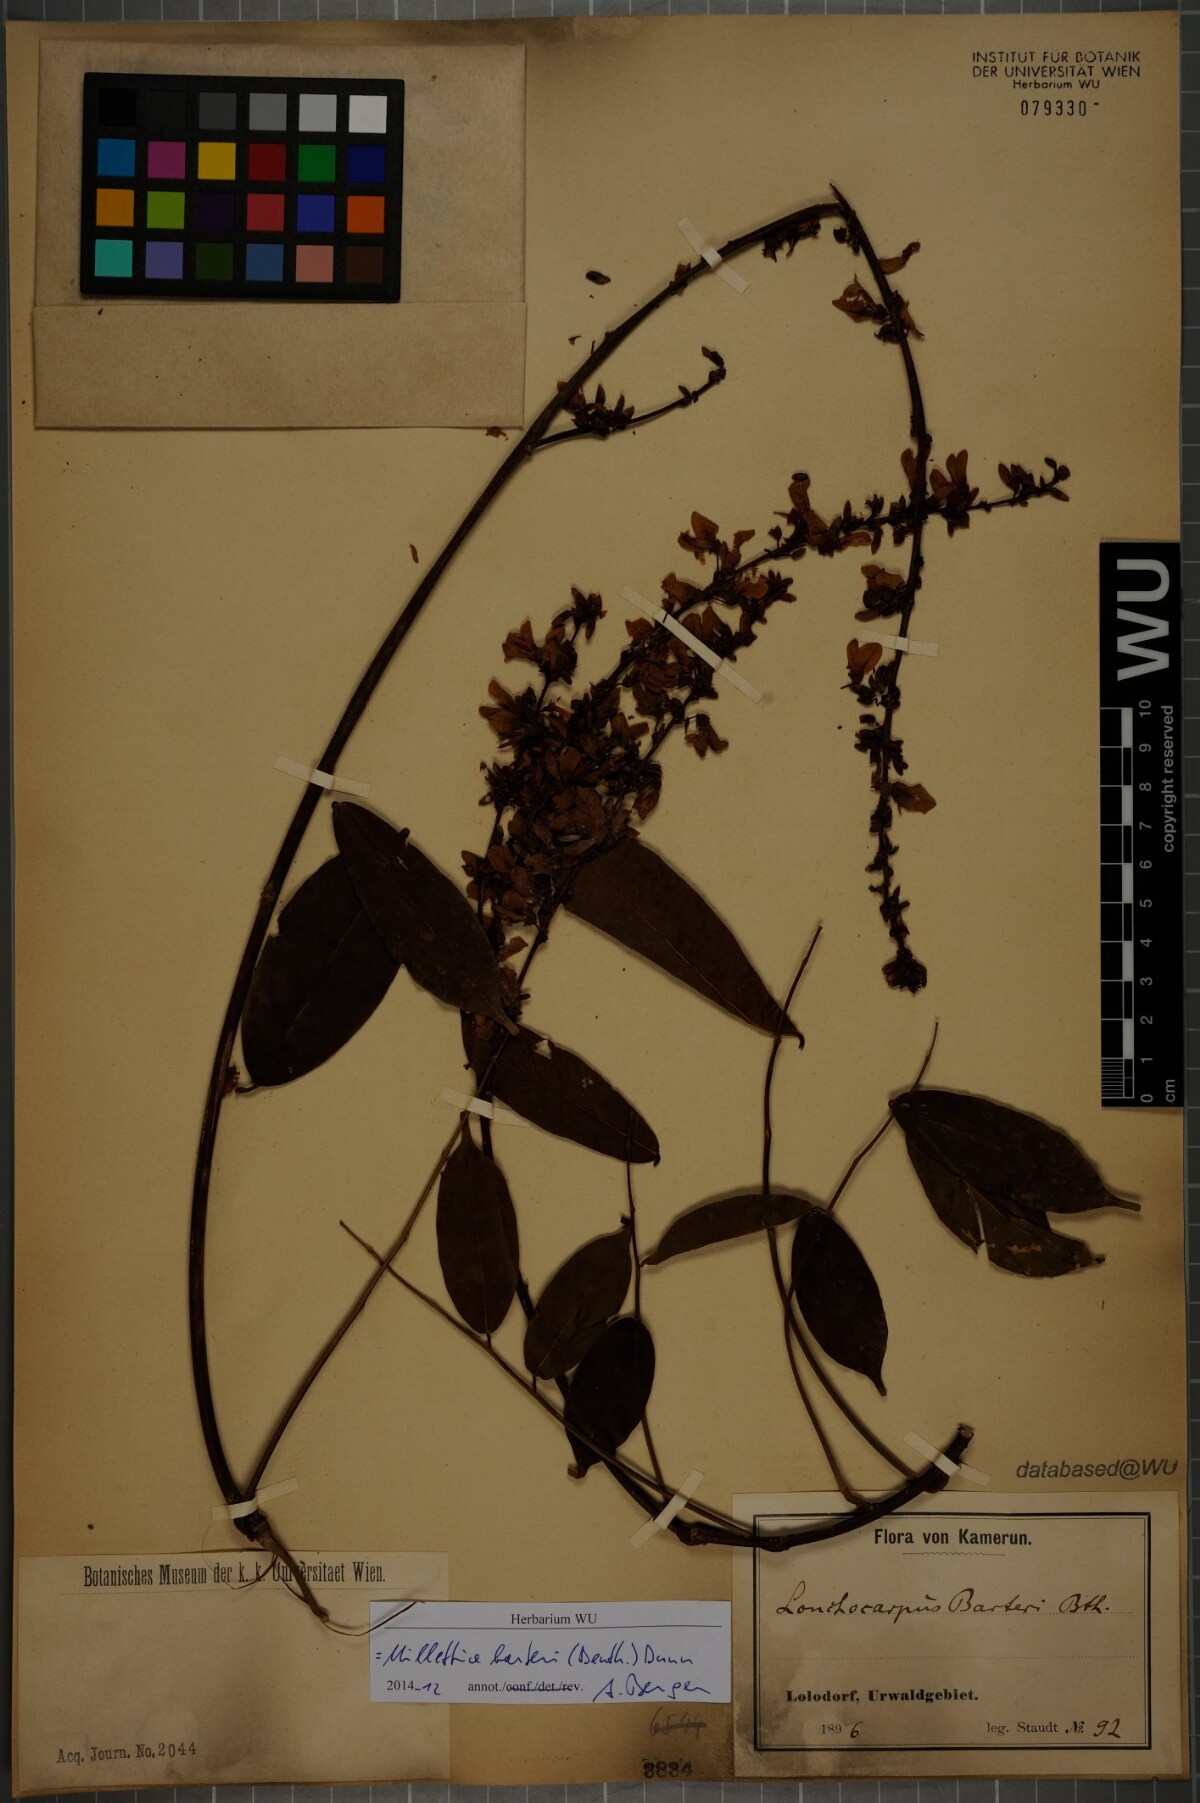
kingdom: Plantae
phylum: Tracheophyta
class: Magnoliopsida
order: Fabales
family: Fabaceae
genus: Millettia
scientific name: Millettia barteri
